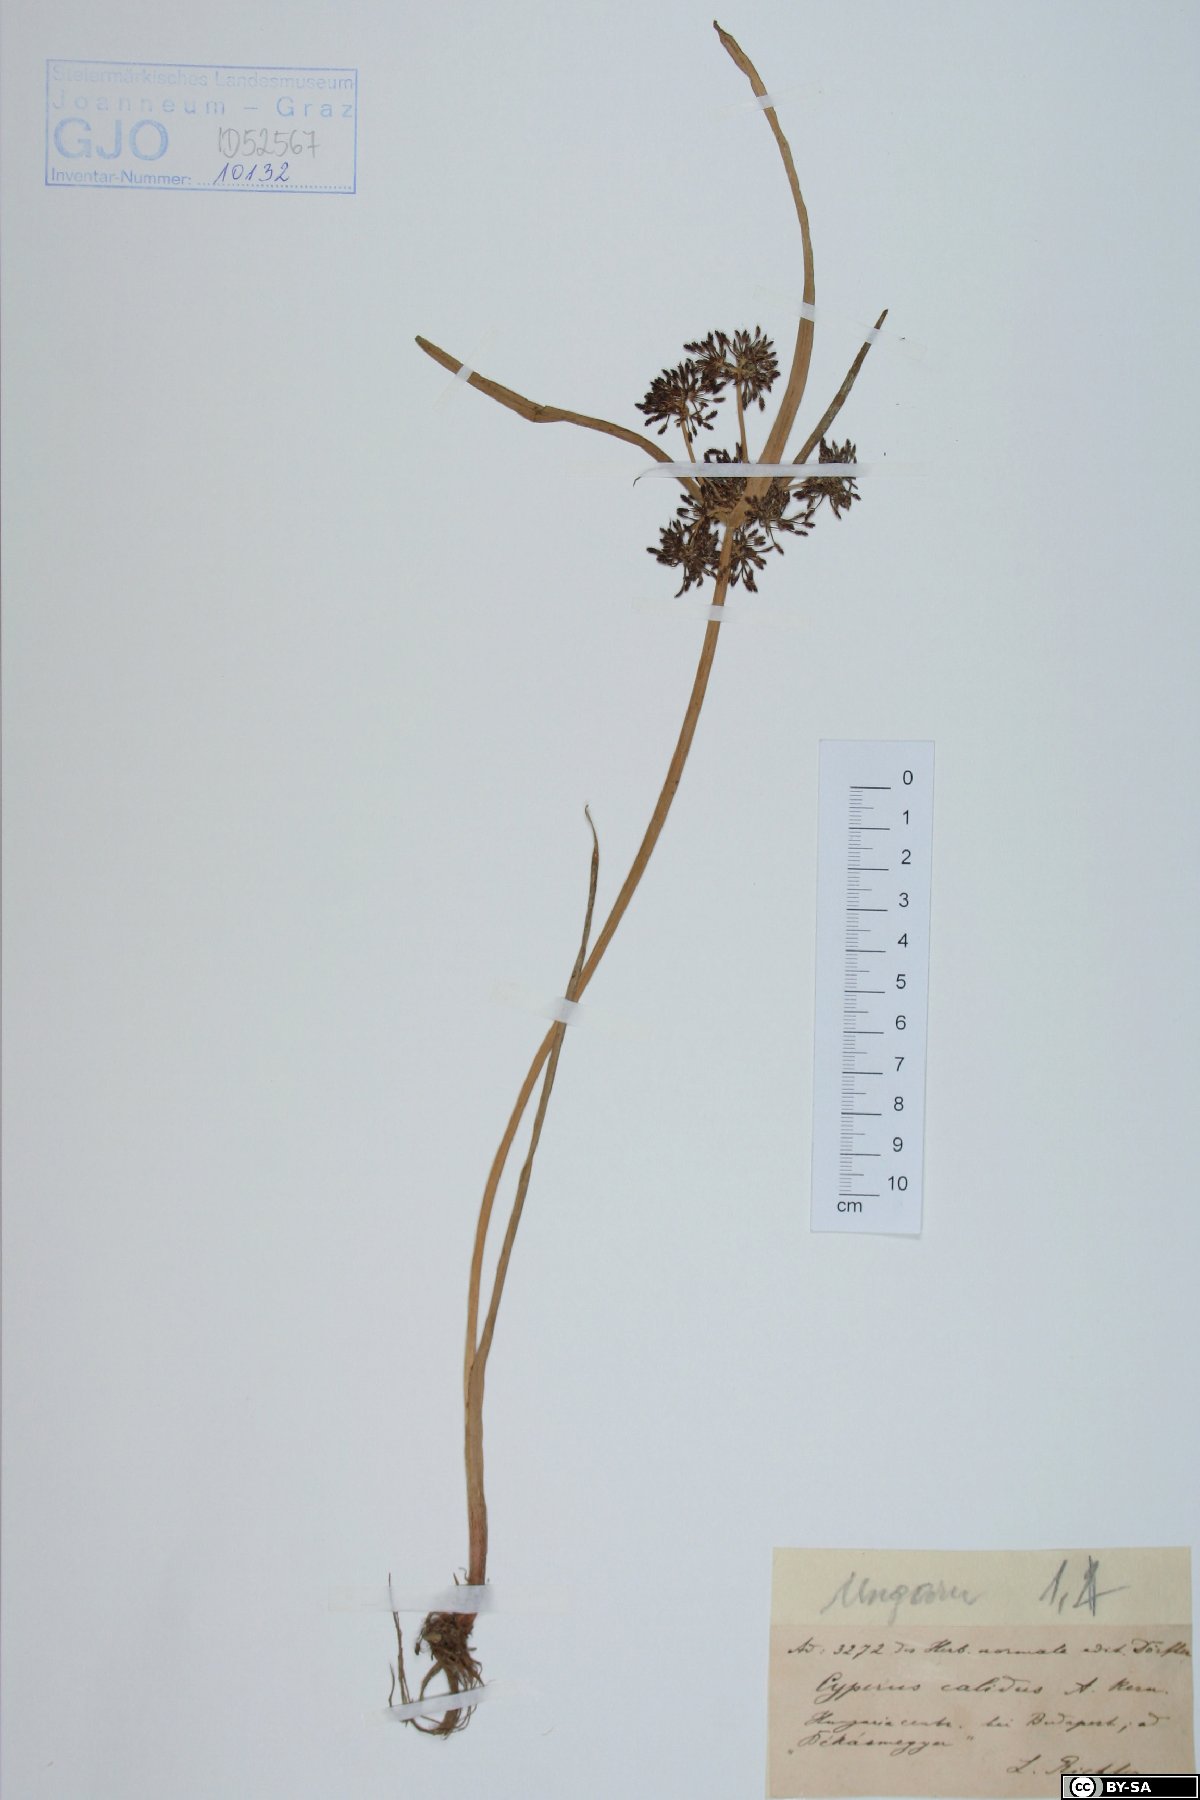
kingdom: Plantae
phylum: Tracheophyta
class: Liliopsida
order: Poales
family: Cyperaceae
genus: Cyperus
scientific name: Cyperus fuscus
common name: Brown galingale
